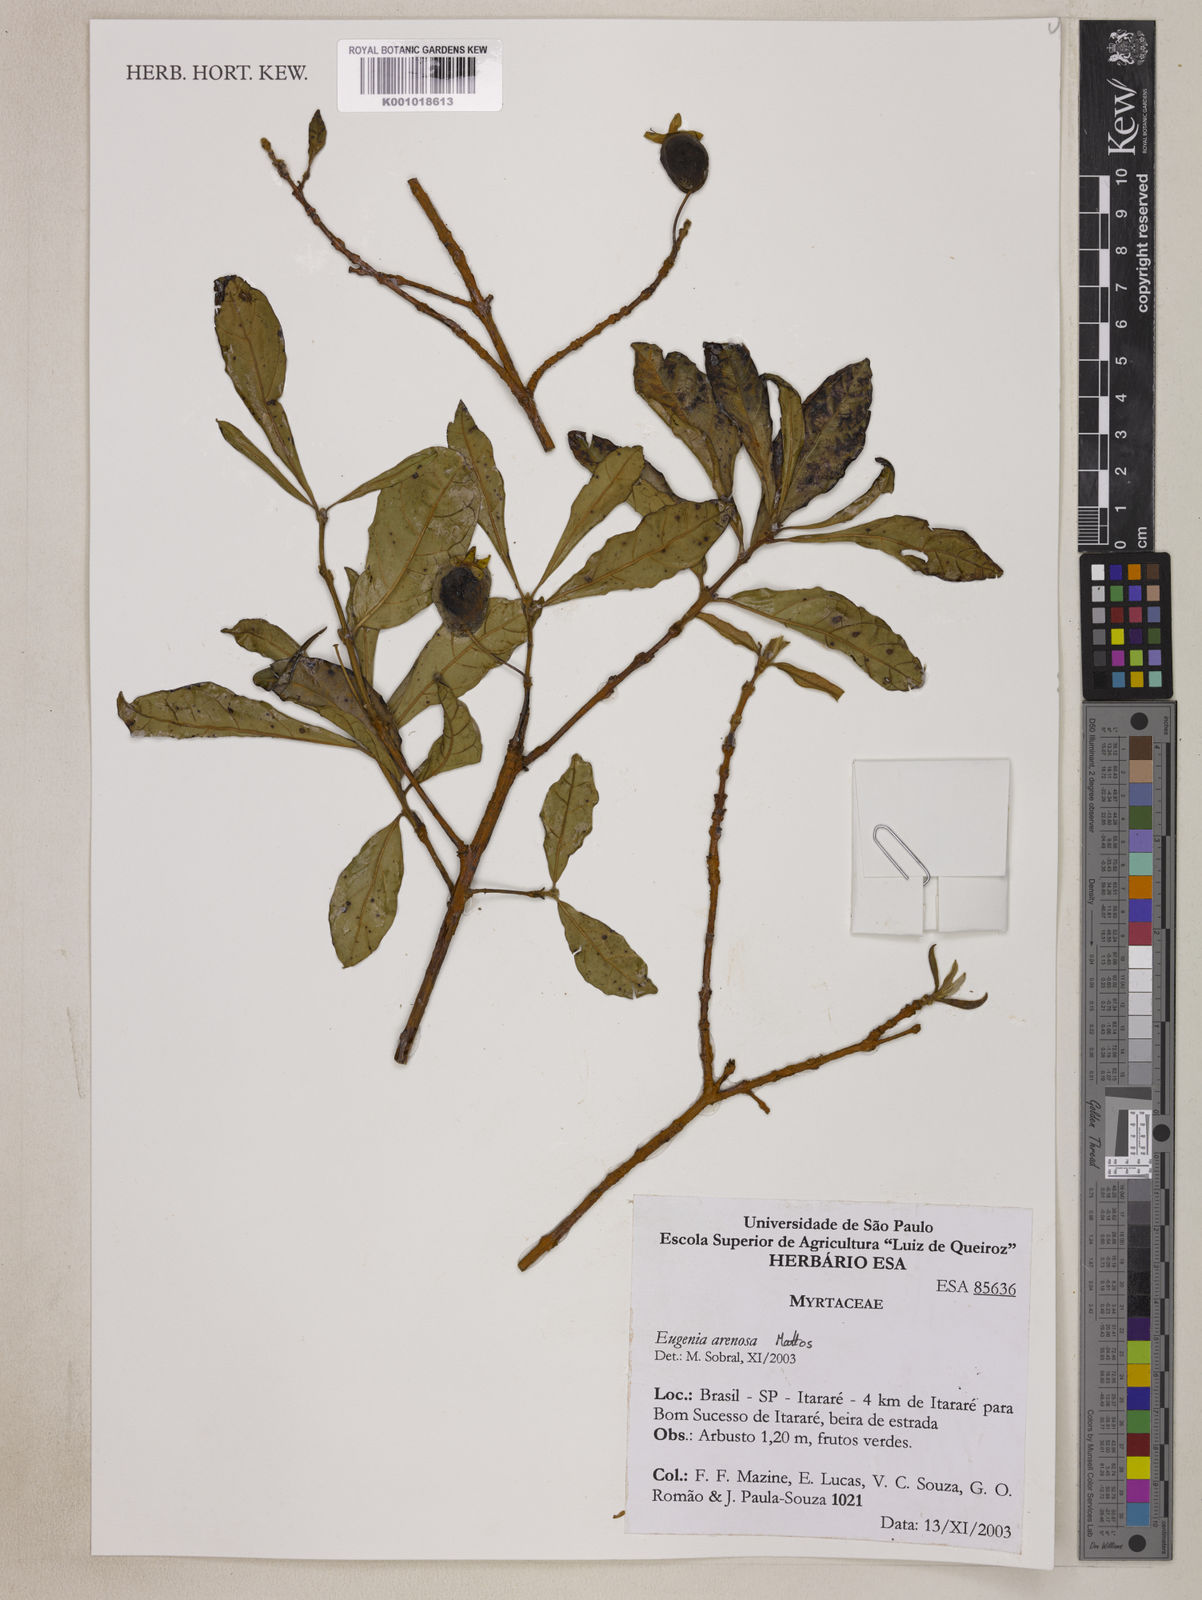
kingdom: Plantae
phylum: Tracheophyta
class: Magnoliopsida
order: Myrtales
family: Myrtaceae
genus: Eugenia
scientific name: Eugenia arenosa
